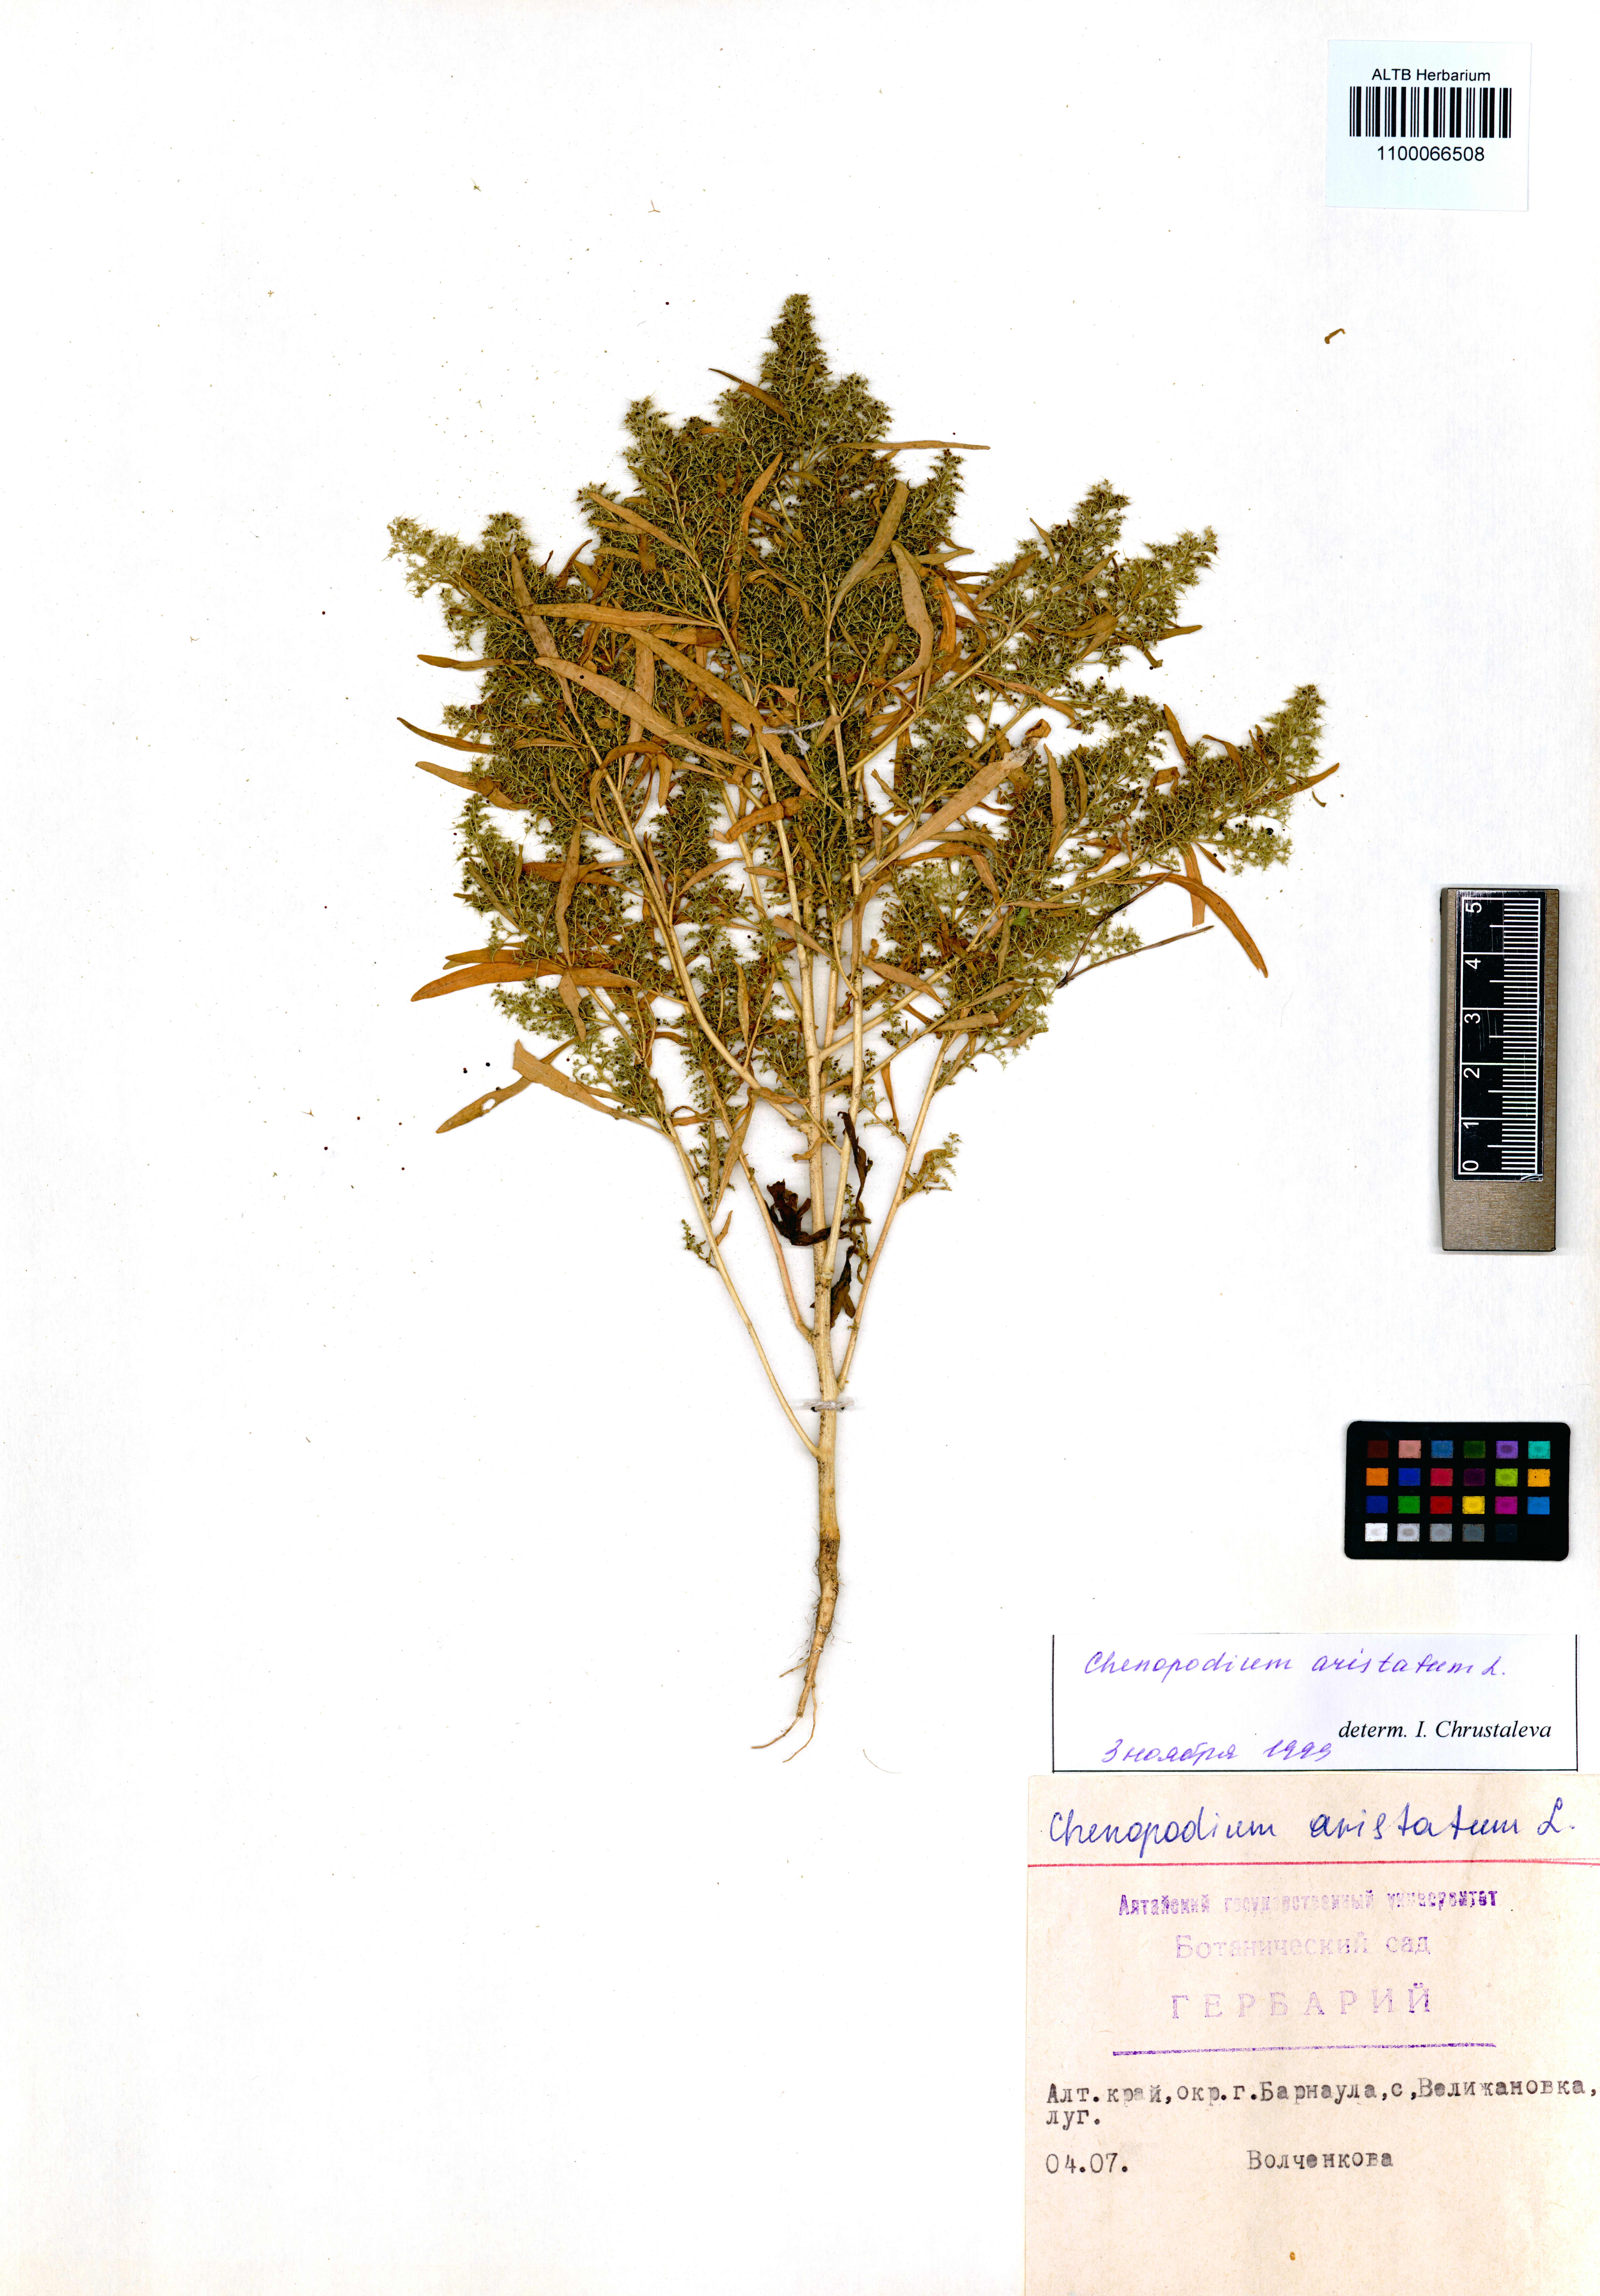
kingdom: Plantae
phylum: Tracheophyta
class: Magnoliopsida
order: Caryophyllales
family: Amaranthaceae
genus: Teloxys
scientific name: Teloxys aristata
